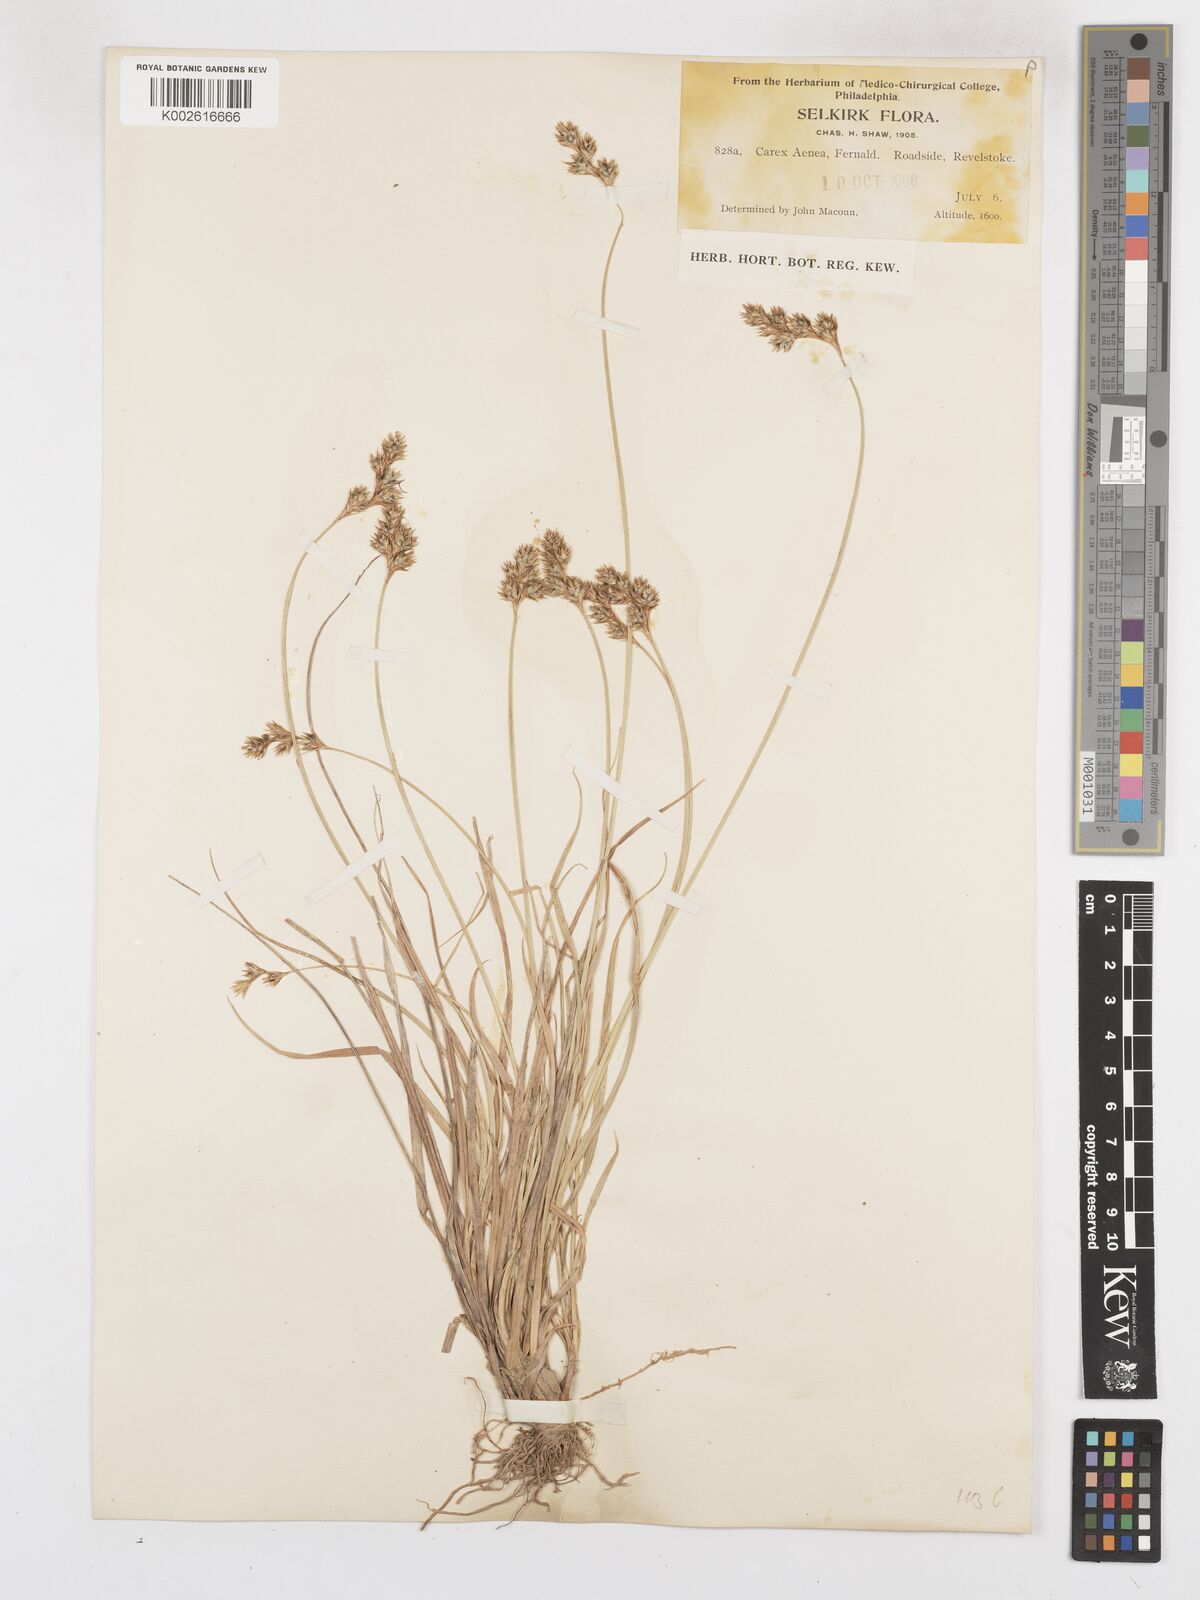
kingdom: Plantae
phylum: Tracheophyta
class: Liliopsida
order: Poales
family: Cyperaceae
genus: Carex
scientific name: Carex foenea
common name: Bronze sedge
